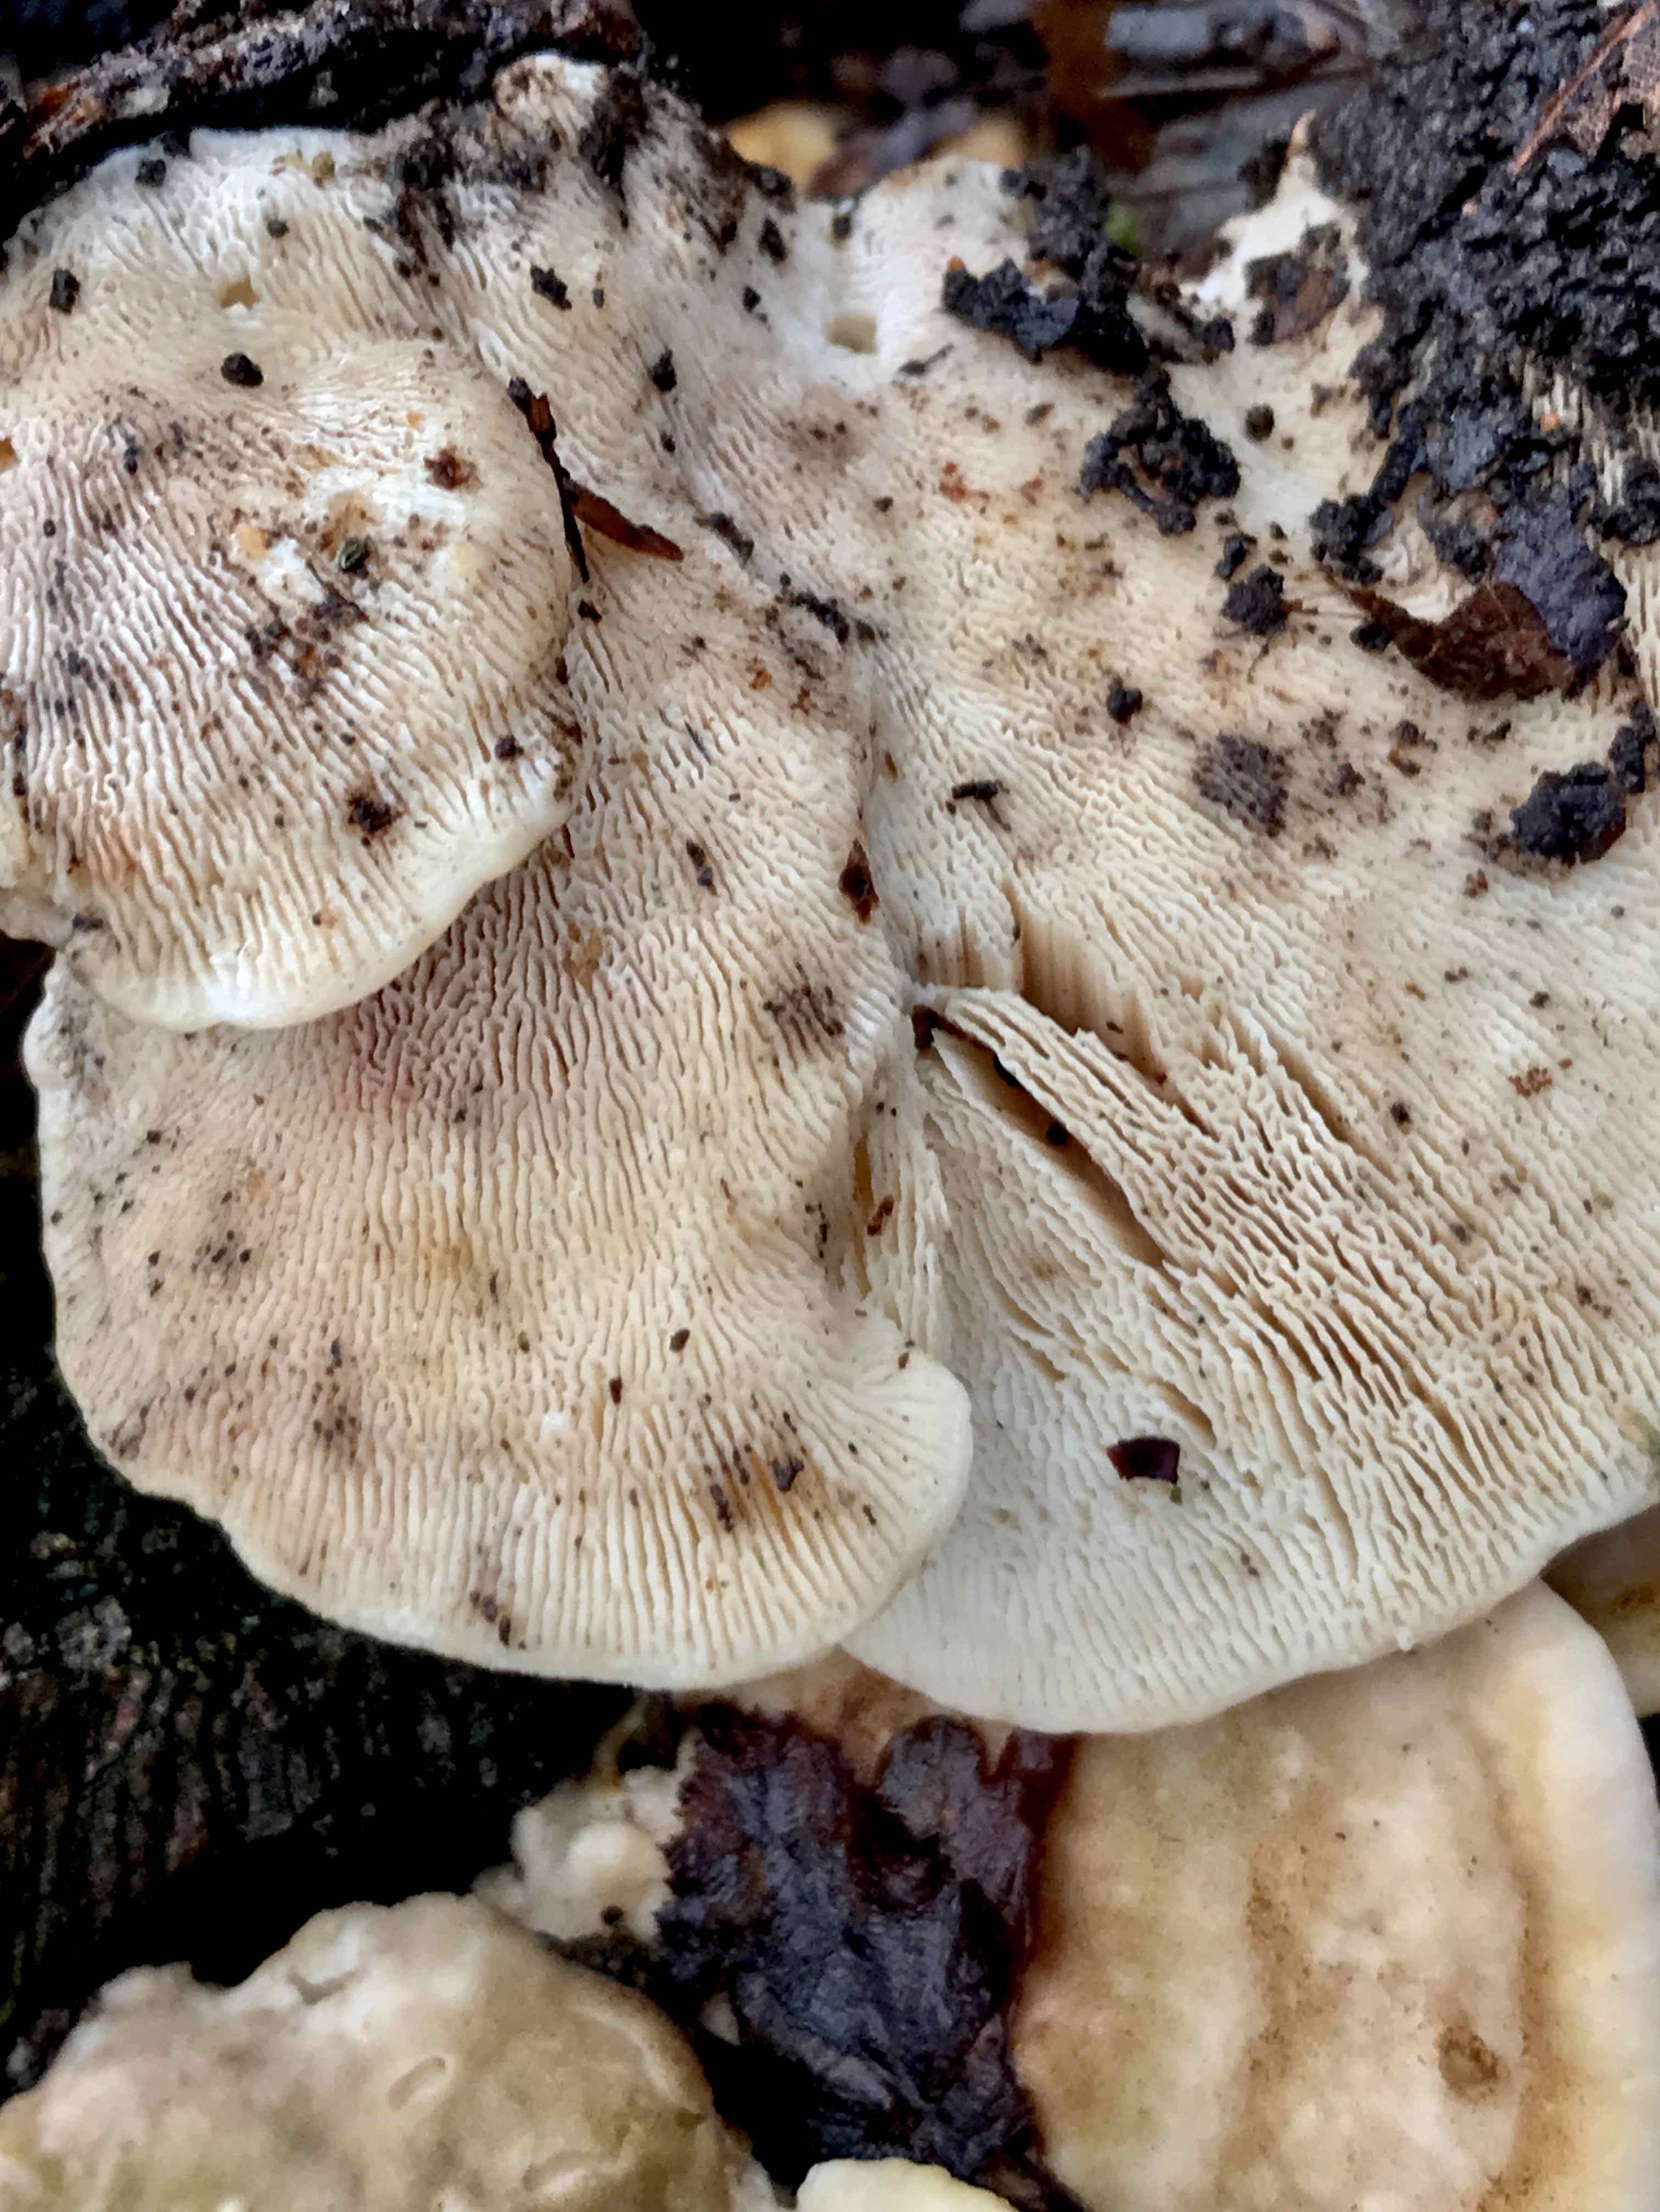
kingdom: Fungi
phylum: Basidiomycota
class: Agaricomycetes
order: Polyporales
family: Polyporaceae
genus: Lenzites
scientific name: Lenzites betulinus
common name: birke-læderporesvamp
